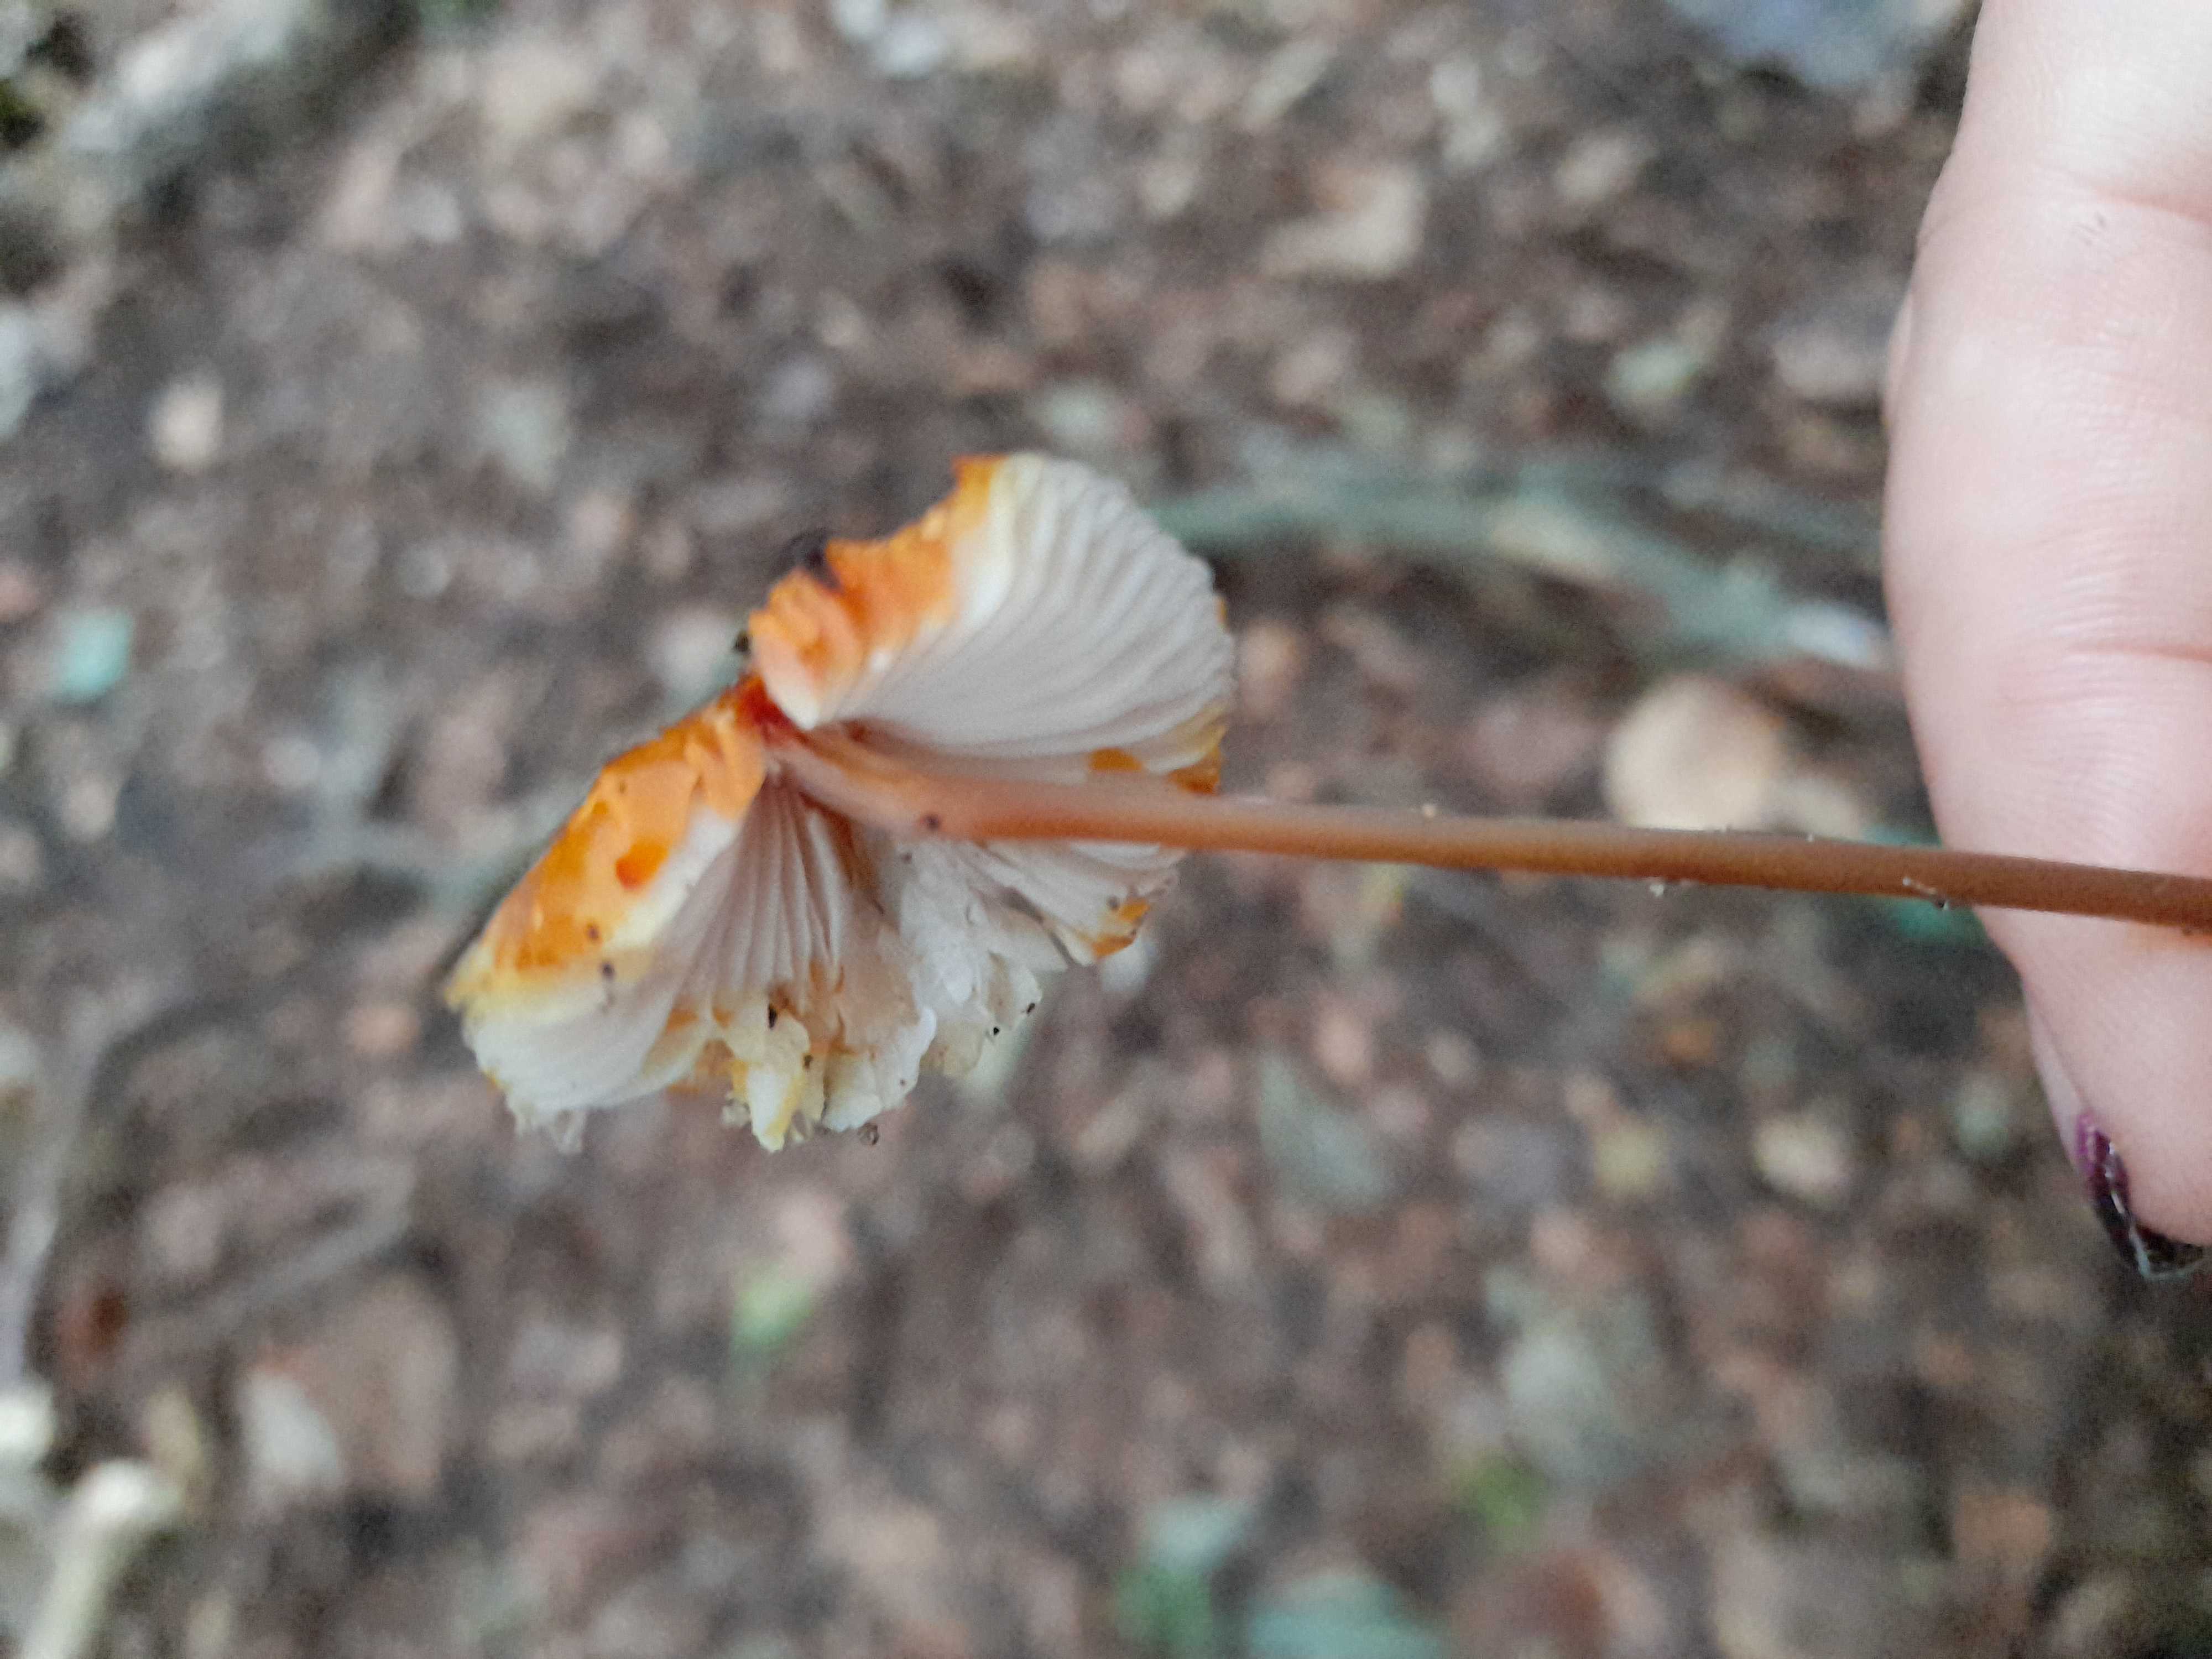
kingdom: Fungi
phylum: Basidiomycota
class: Agaricomycetes
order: Agaricales
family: Mycenaceae
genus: Mycena
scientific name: Mycena crocata
